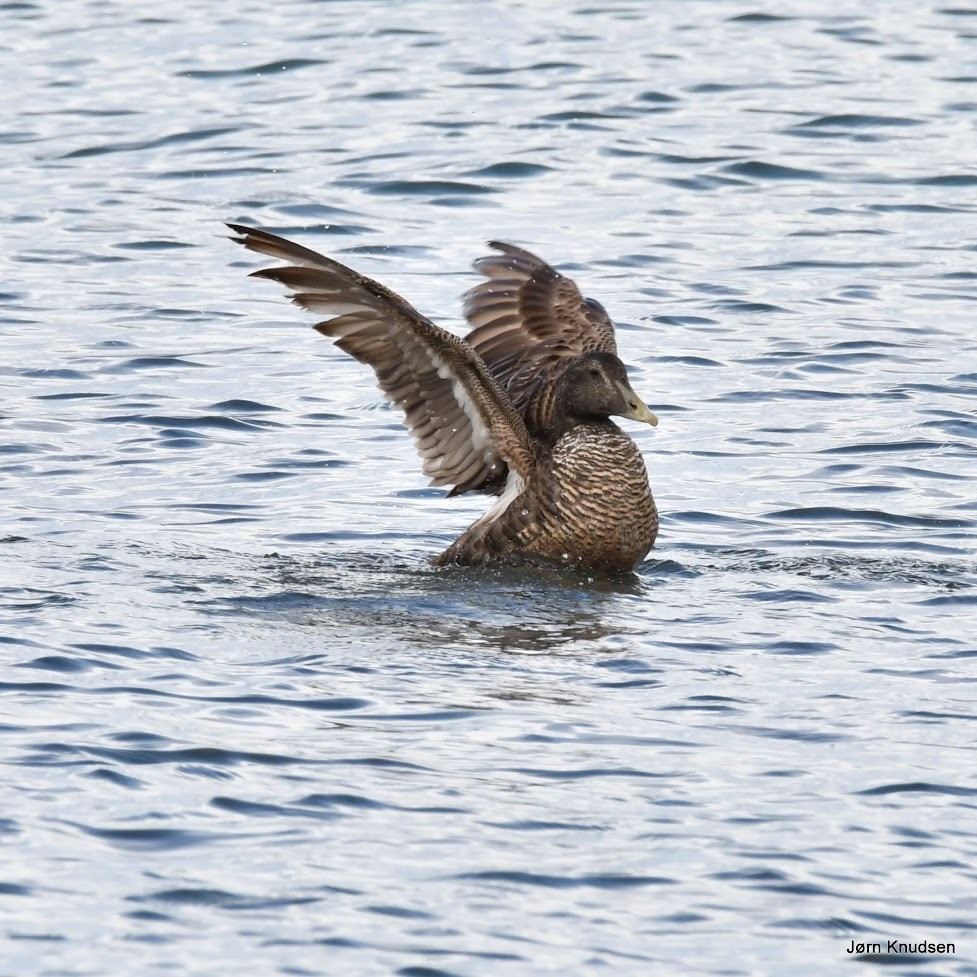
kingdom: Animalia
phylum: Chordata
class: Aves
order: Anseriformes
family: Anatidae
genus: Somateria
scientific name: Somateria mollissima
